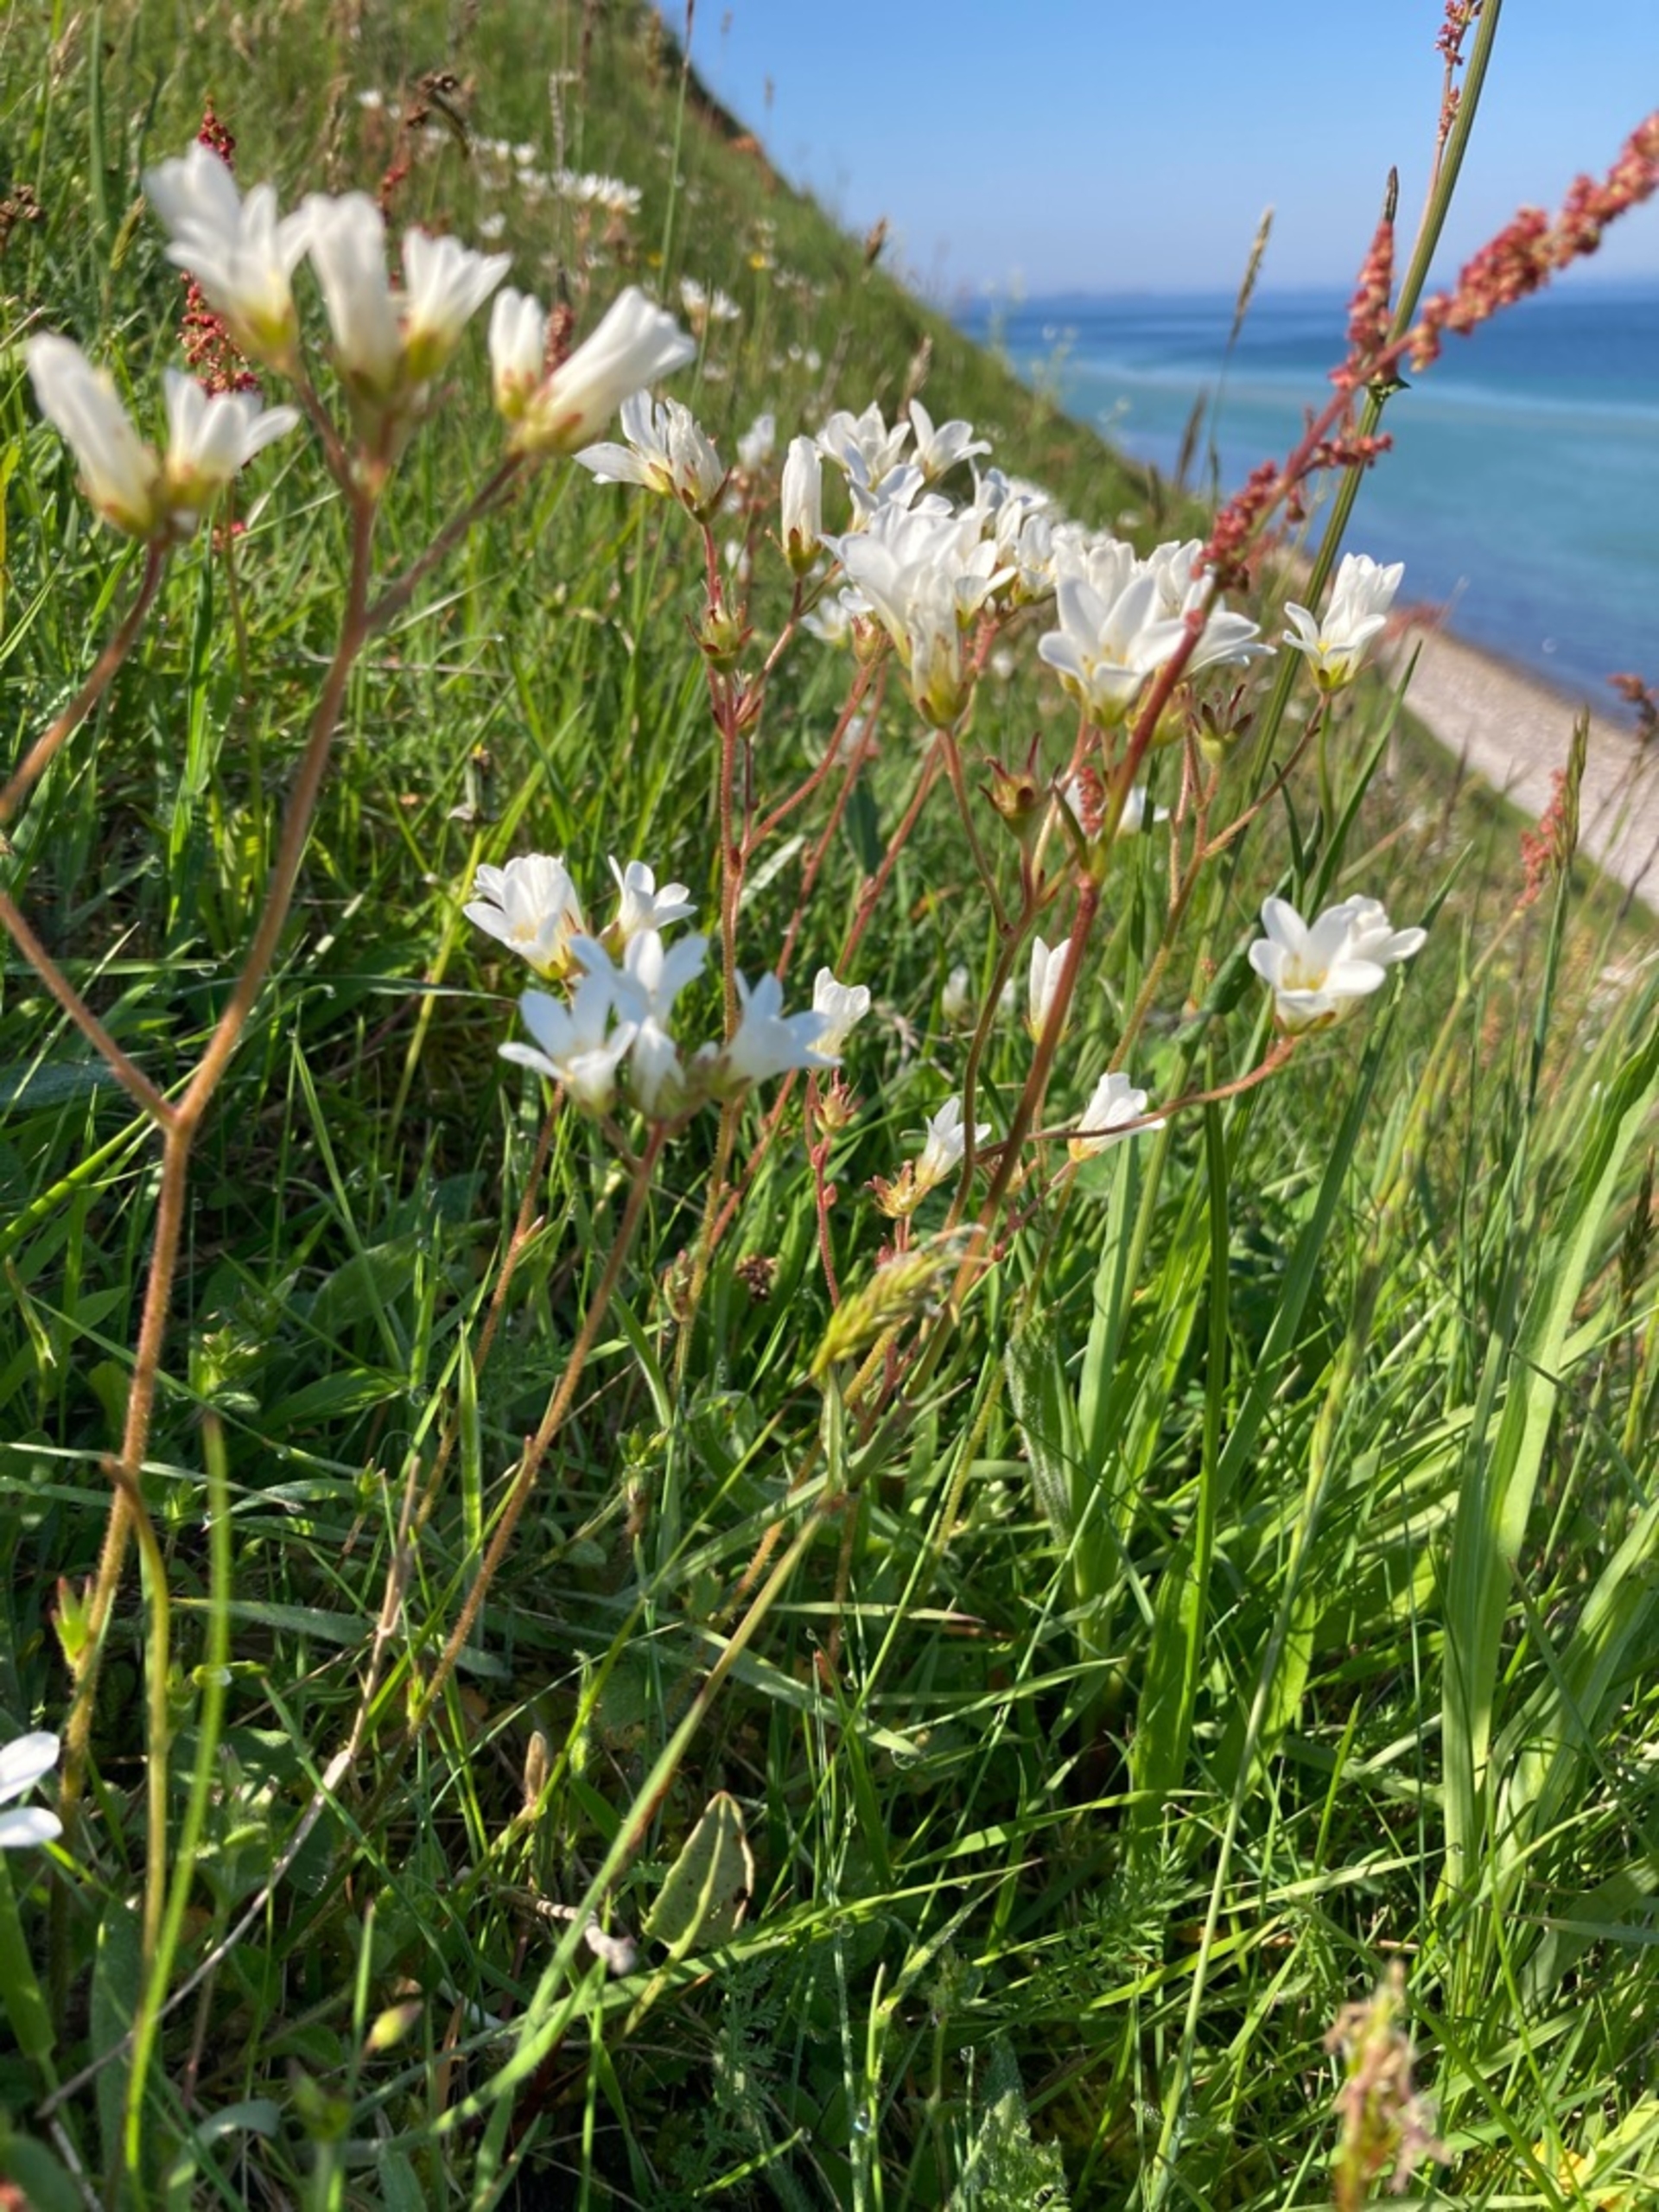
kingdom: Plantae
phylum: Tracheophyta
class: Magnoliopsida
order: Saxifragales
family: Saxifragaceae
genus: Saxifraga
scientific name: Saxifraga granulata
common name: Kornet stenbræk
